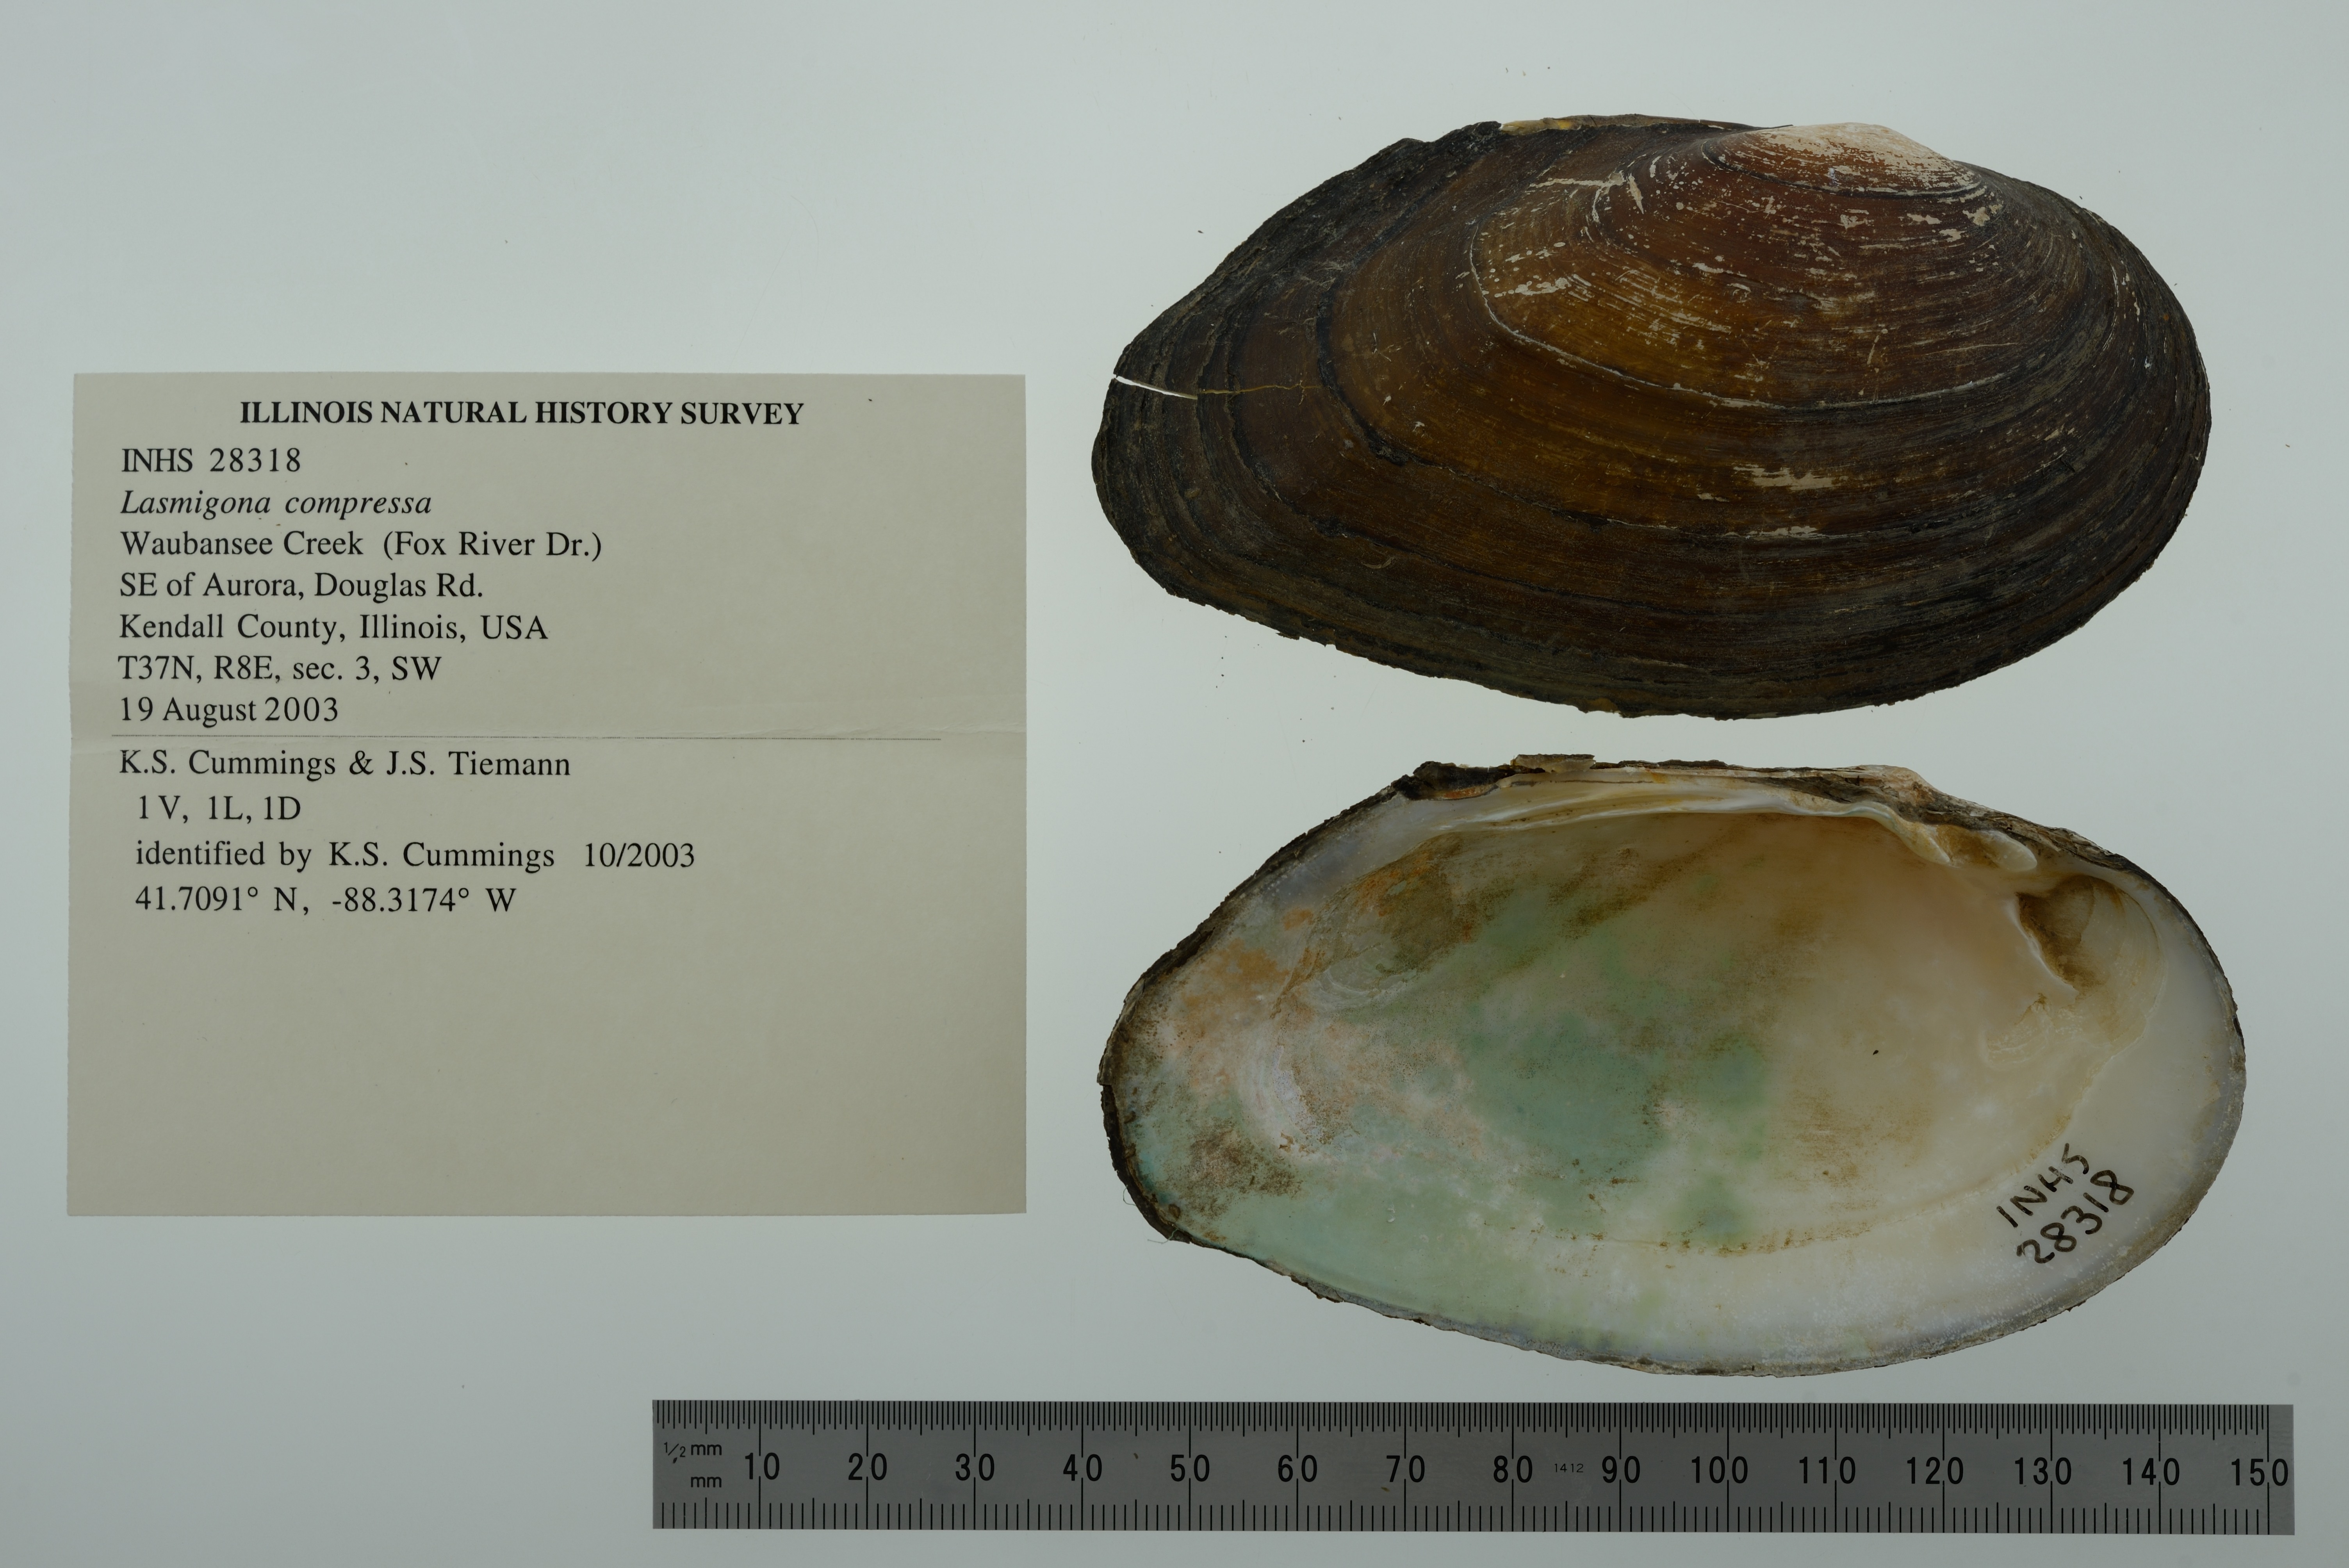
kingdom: Animalia
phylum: Mollusca
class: Bivalvia
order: Unionida
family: Unionidae
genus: Lasmigona
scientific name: Lasmigona compressa
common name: Creek heelsplitter
